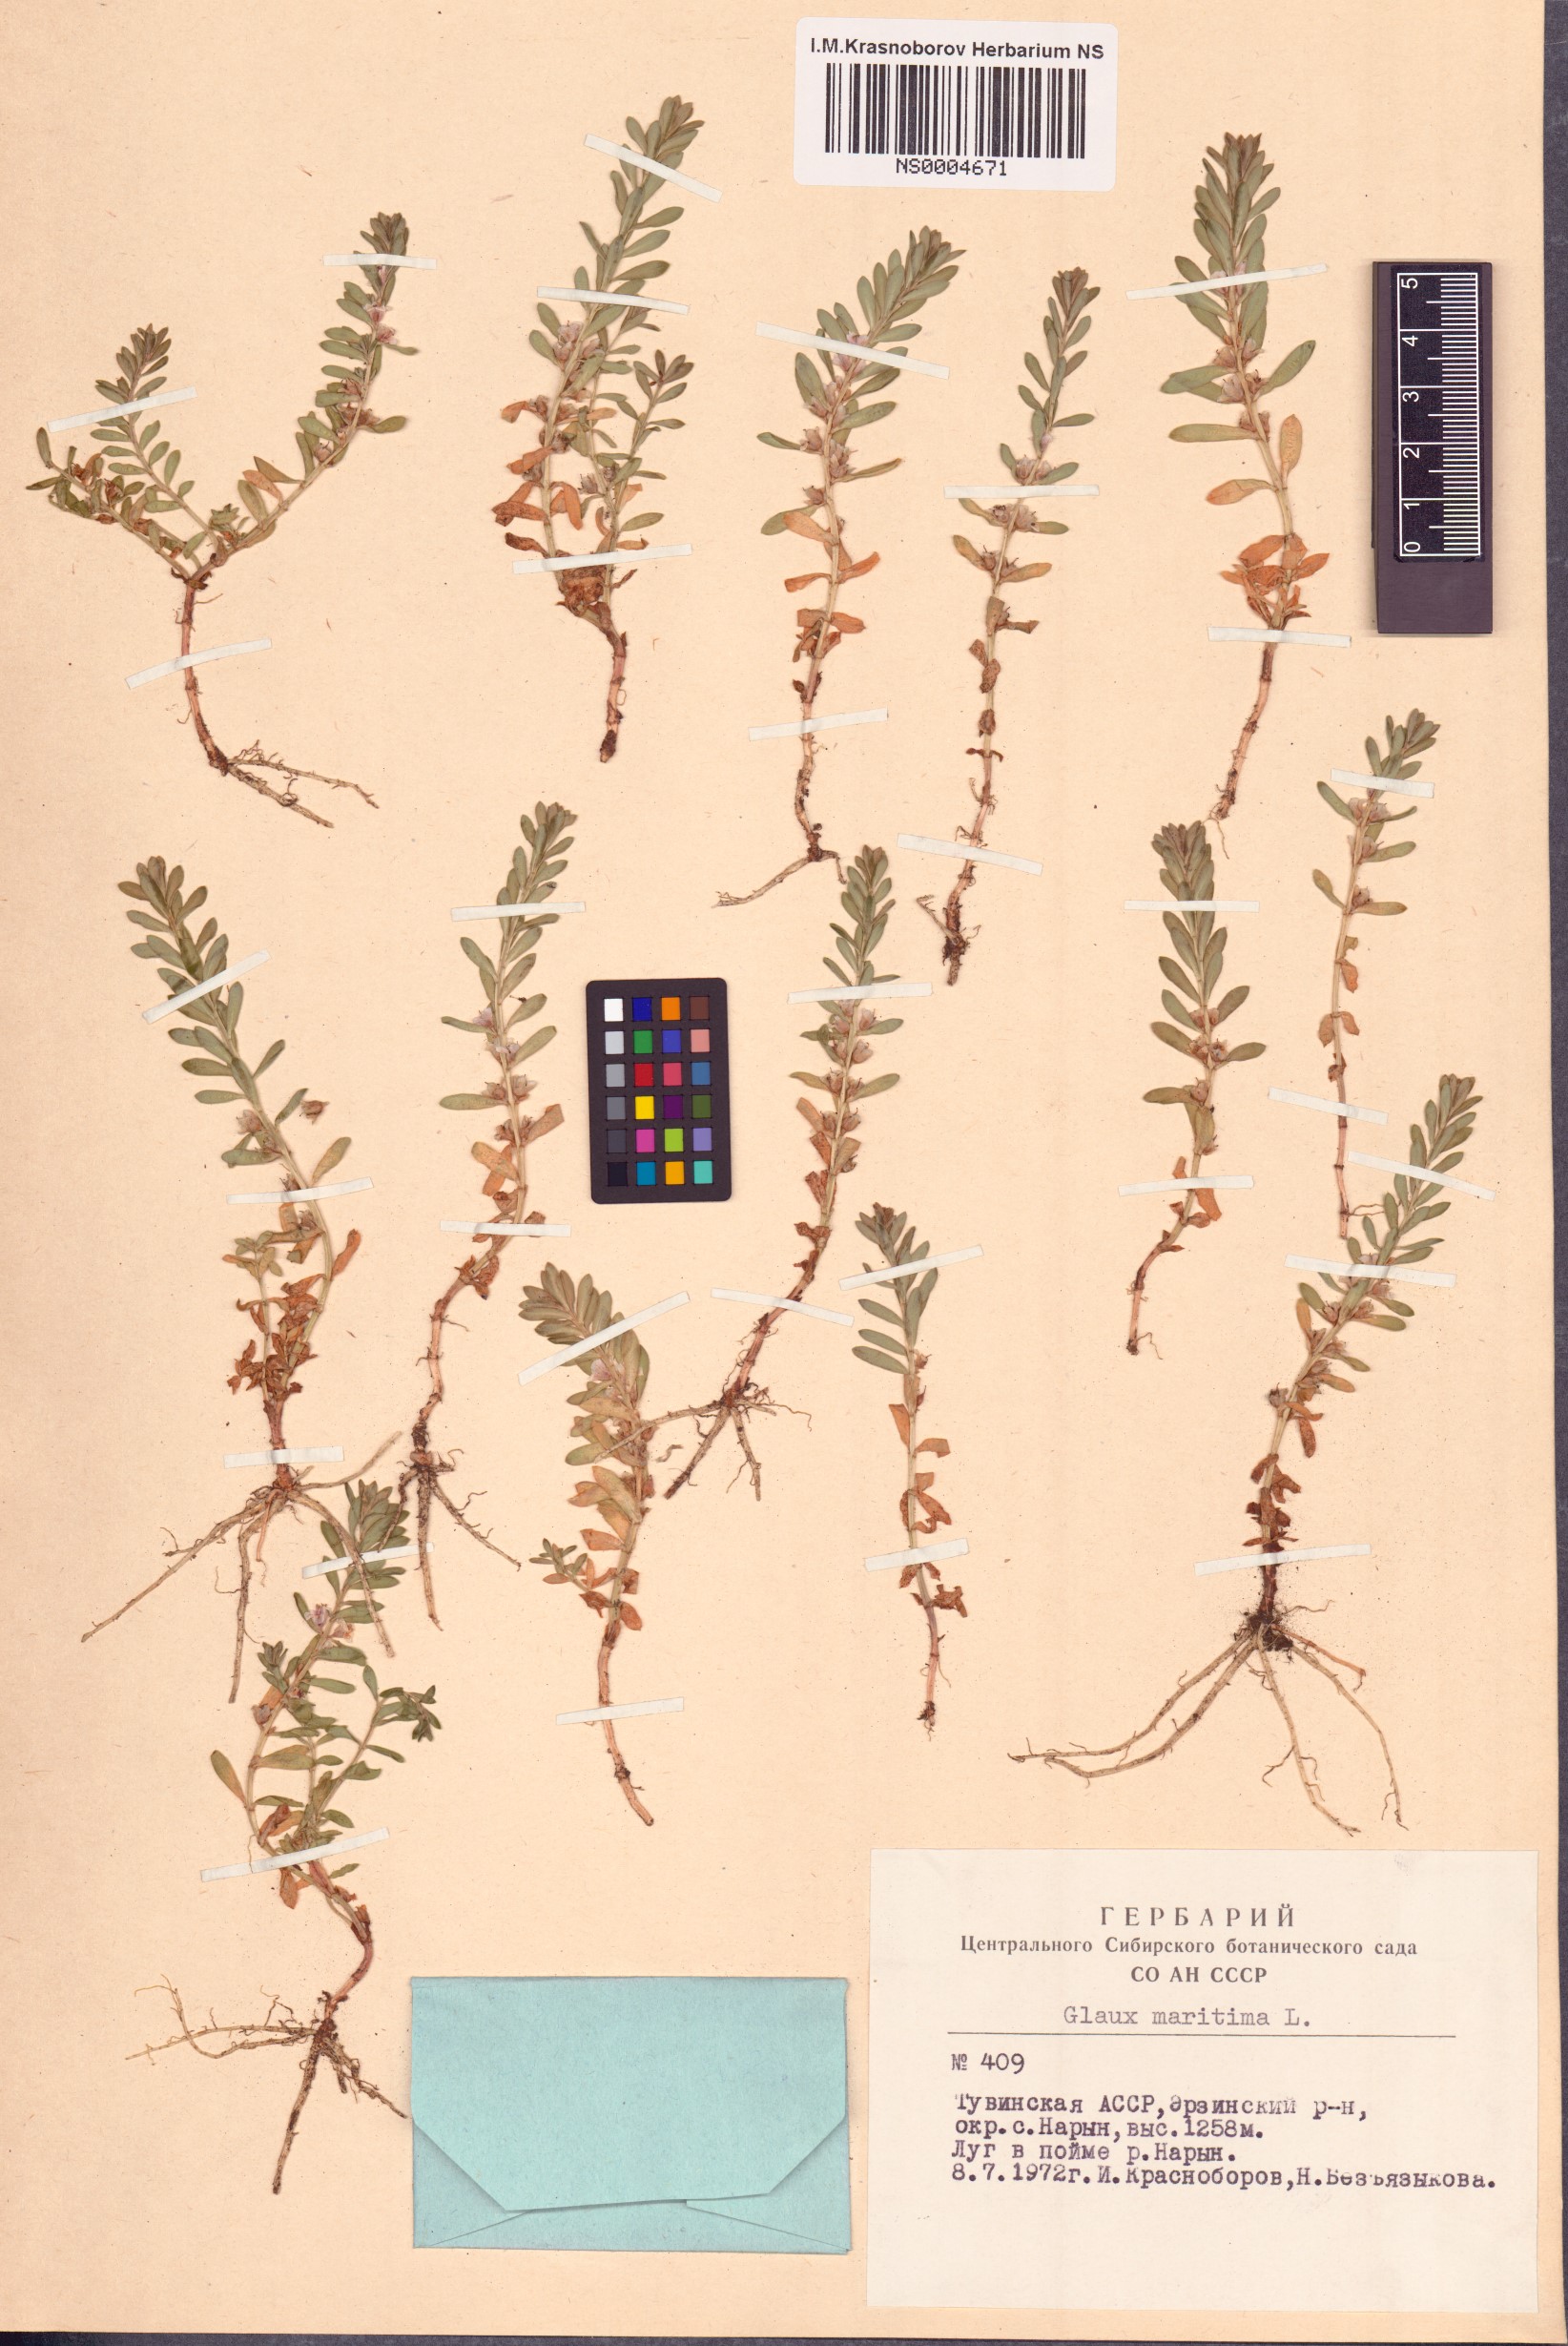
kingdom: Plantae
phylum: Tracheophyta
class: Magnoliopsida
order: Ericales
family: Primulaceae
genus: Lysimachia
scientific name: Lysimachia maritima
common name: Sea milkwort
